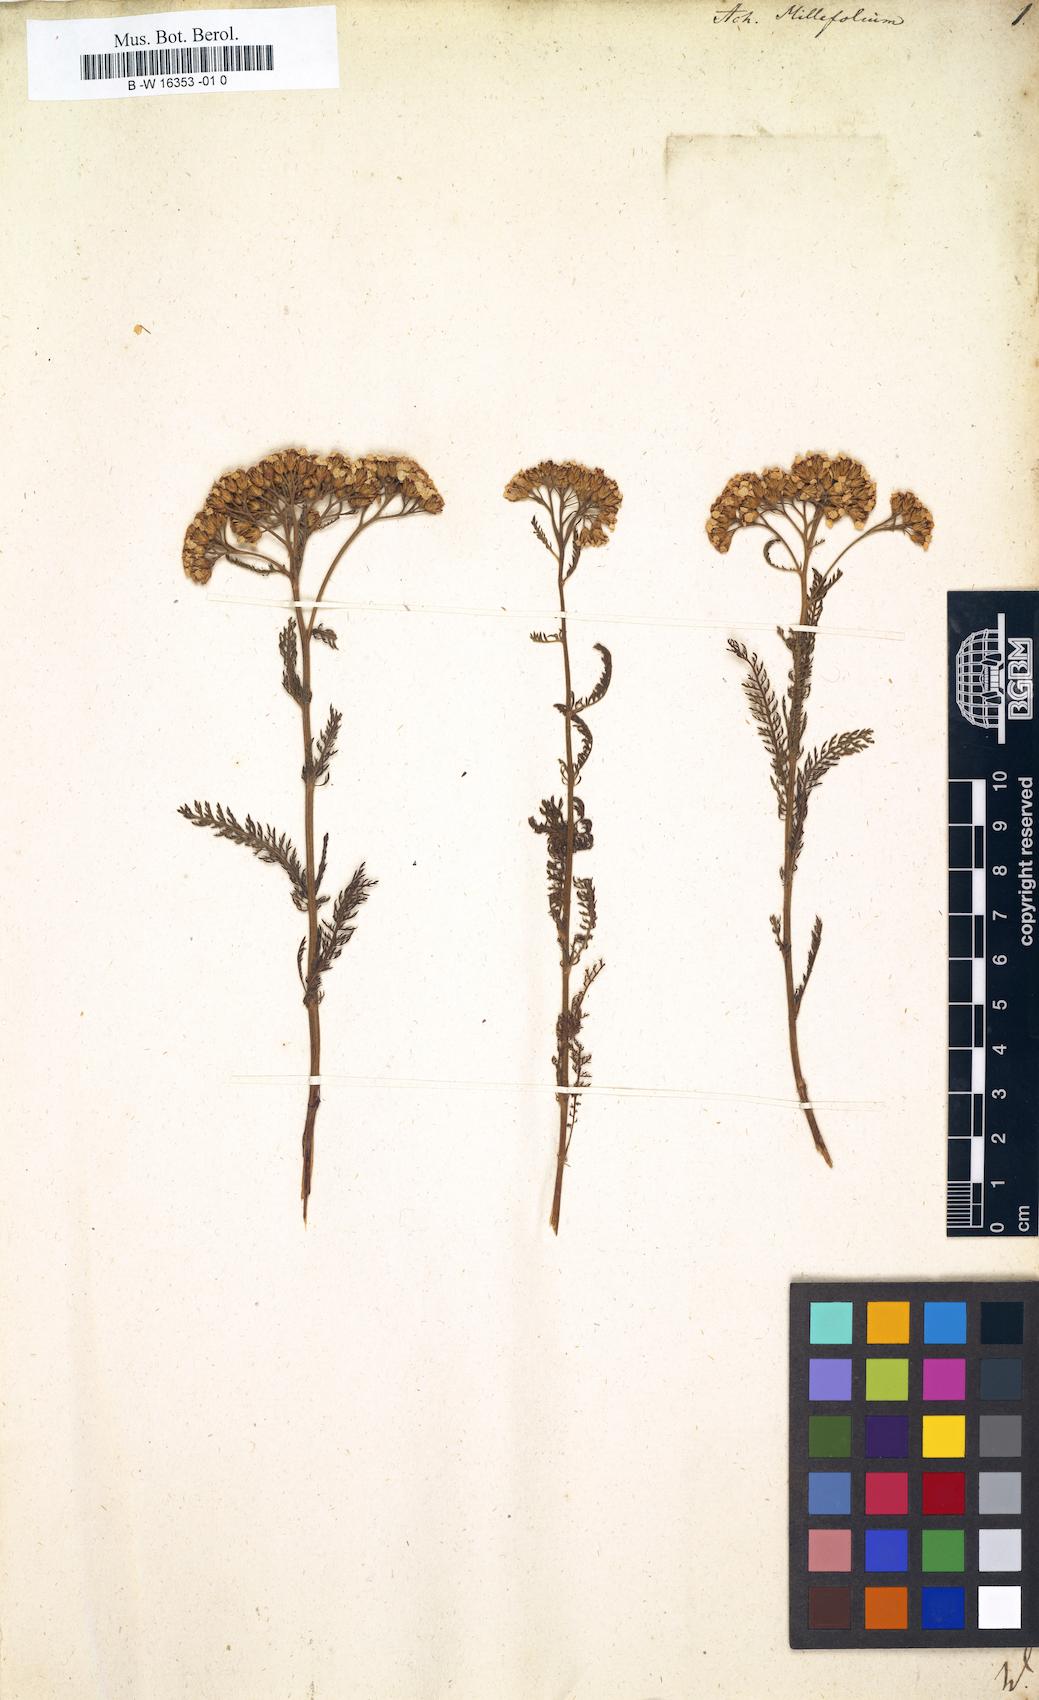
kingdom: Plantae
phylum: Tracheophyta
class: Magnoliopsida
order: Asterales
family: Asteraceae
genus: Achillea
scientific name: Achillea millefolium
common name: Yarrow
